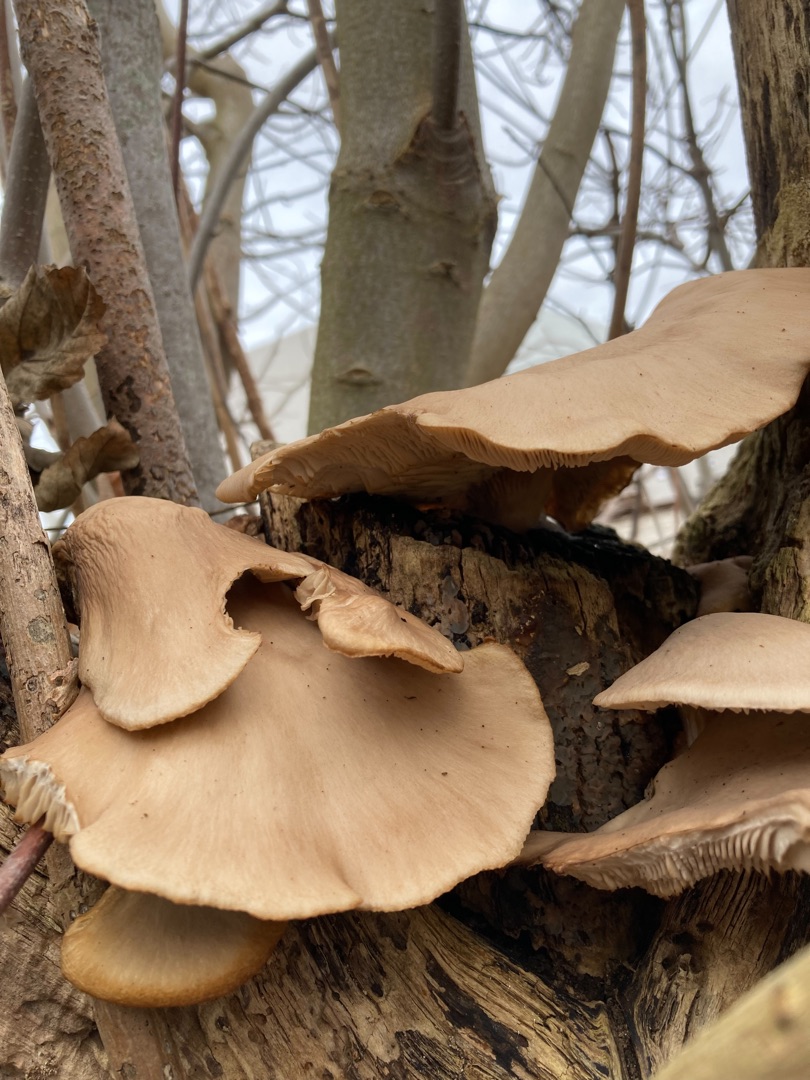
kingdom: Fungi
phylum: Basidiomycota
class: Agaricomycetes
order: Agaricales
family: Pleurotaceae
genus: Pleurotus
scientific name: Pleurotus ostreatus
